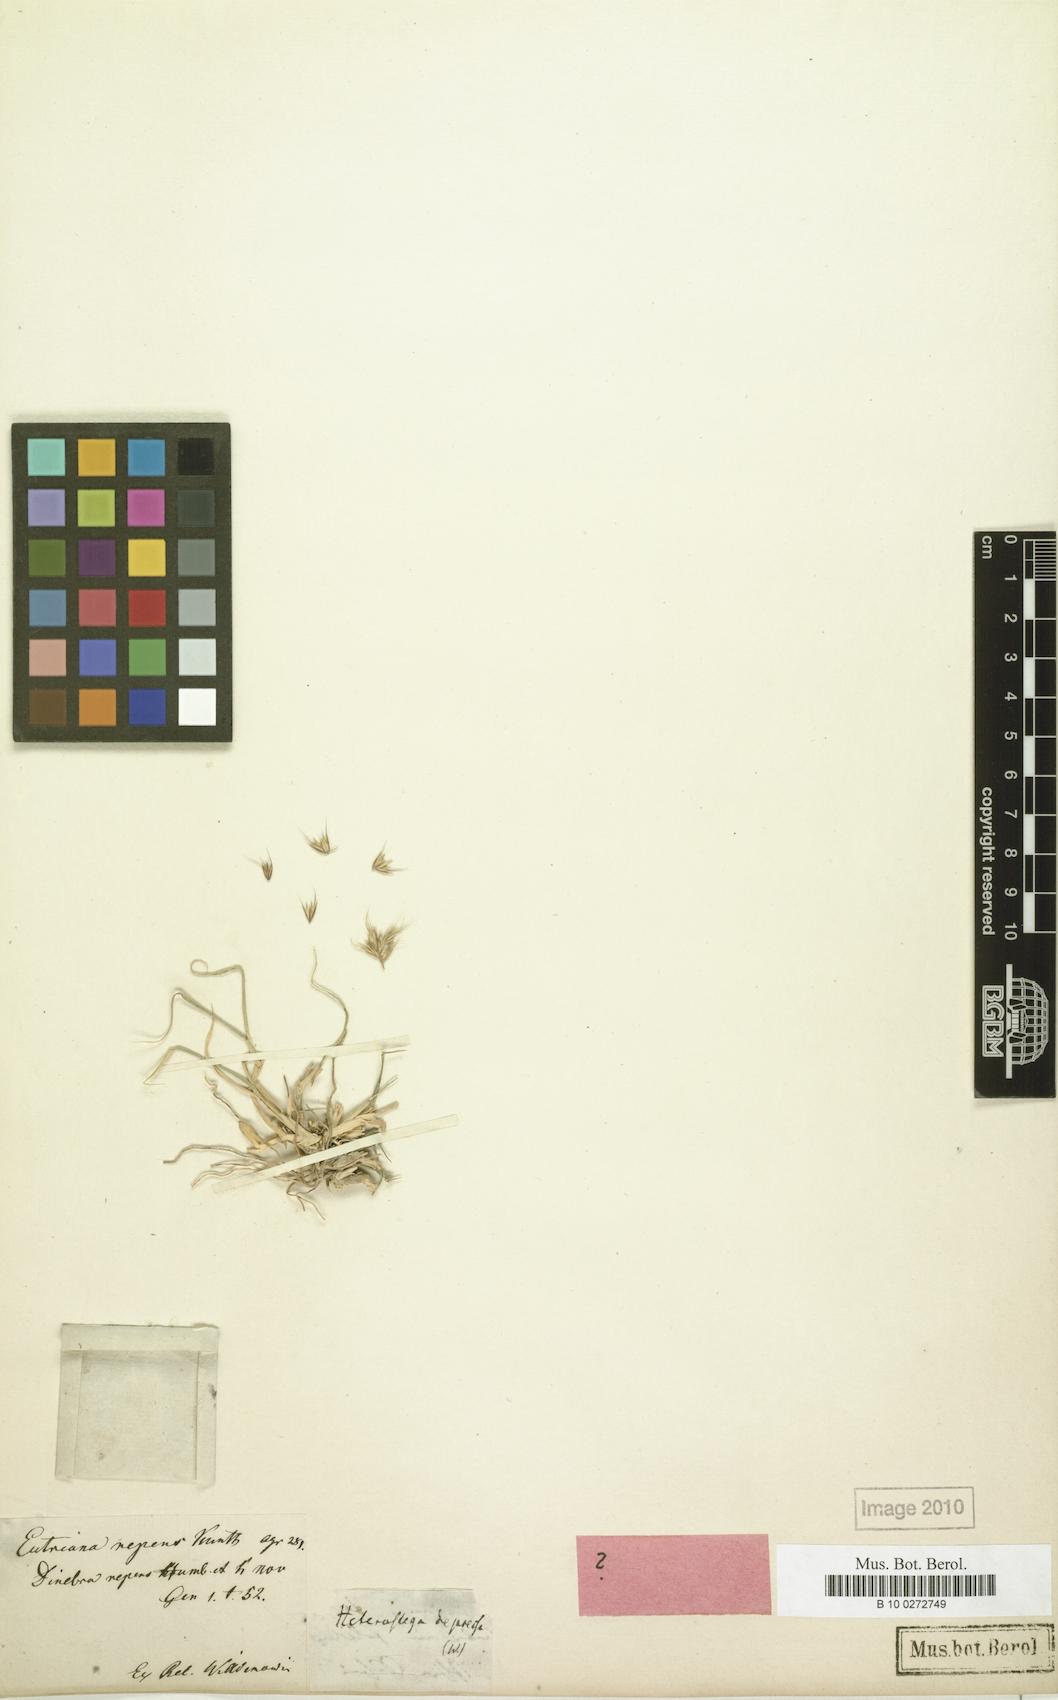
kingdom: Plantae
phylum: Tracheophyta
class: Liliopsida
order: Poales
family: Poaceae
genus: Bouteloua
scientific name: Bouteloua repens
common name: Slender grama
